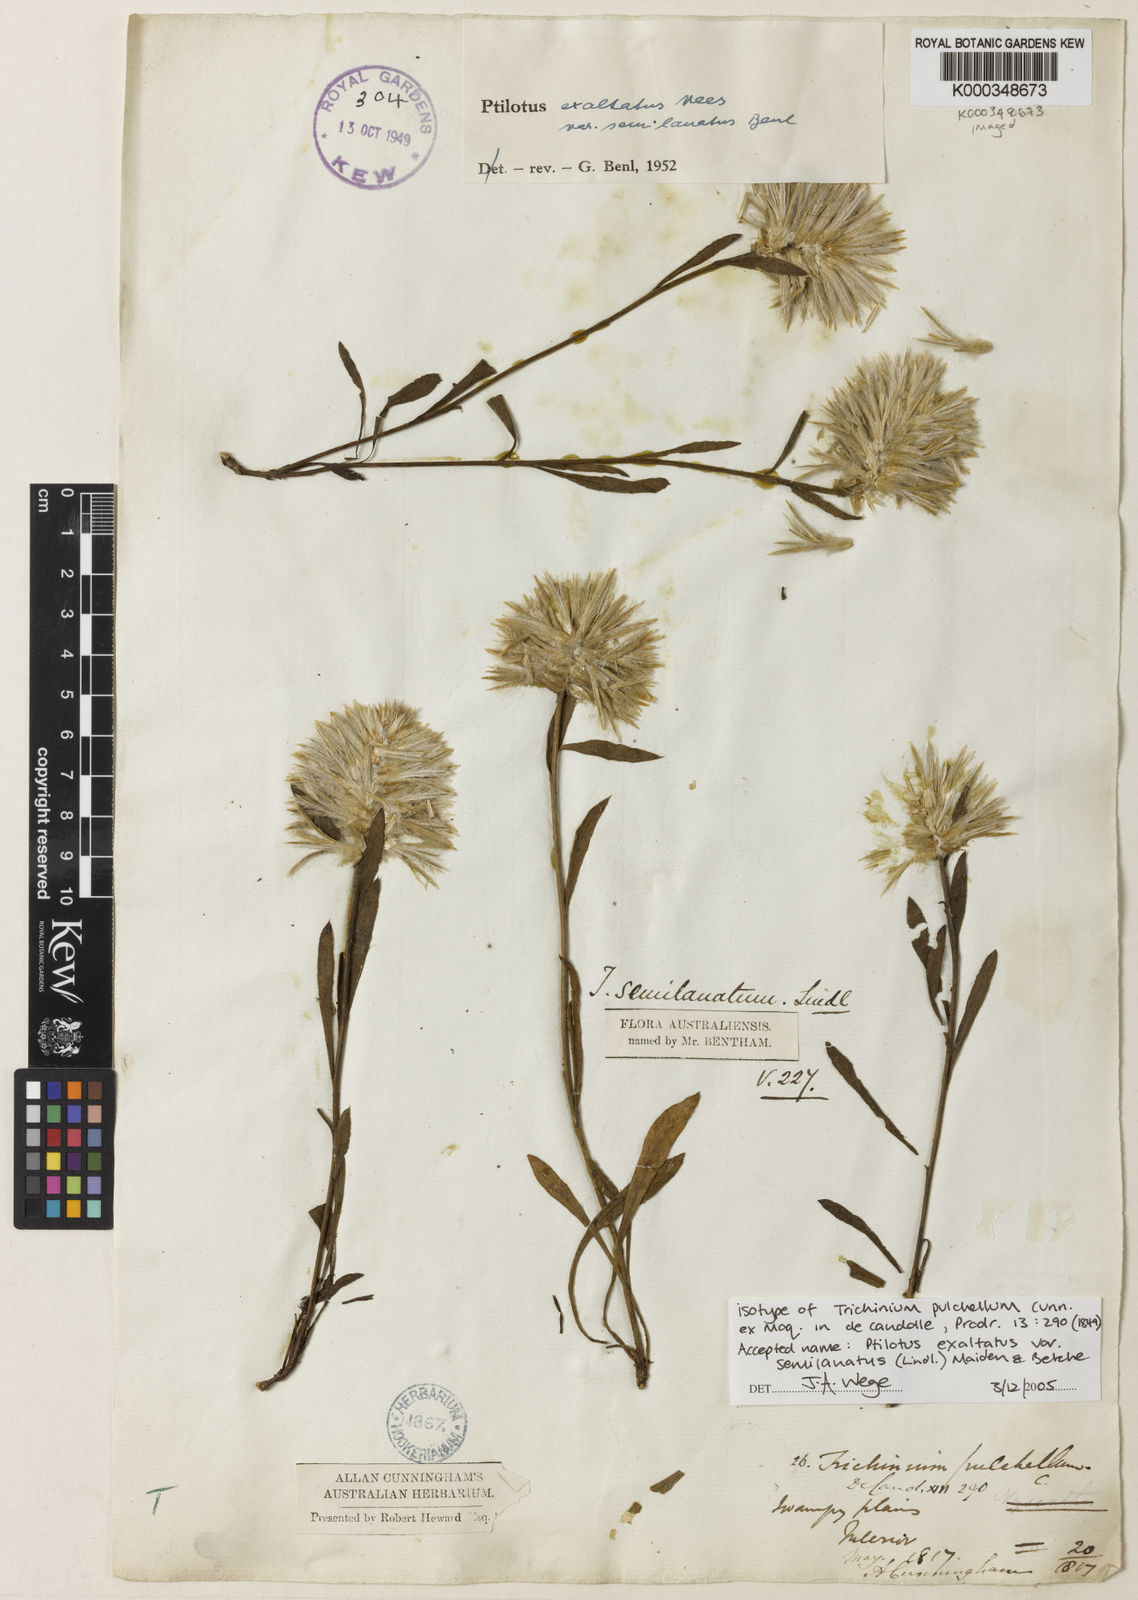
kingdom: Plantae
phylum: Tracheophyta
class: Magnoliopsida
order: Caryophyllales
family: Amaranthaceae
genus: Ptilotus
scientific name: Ptilotus semilanatus
